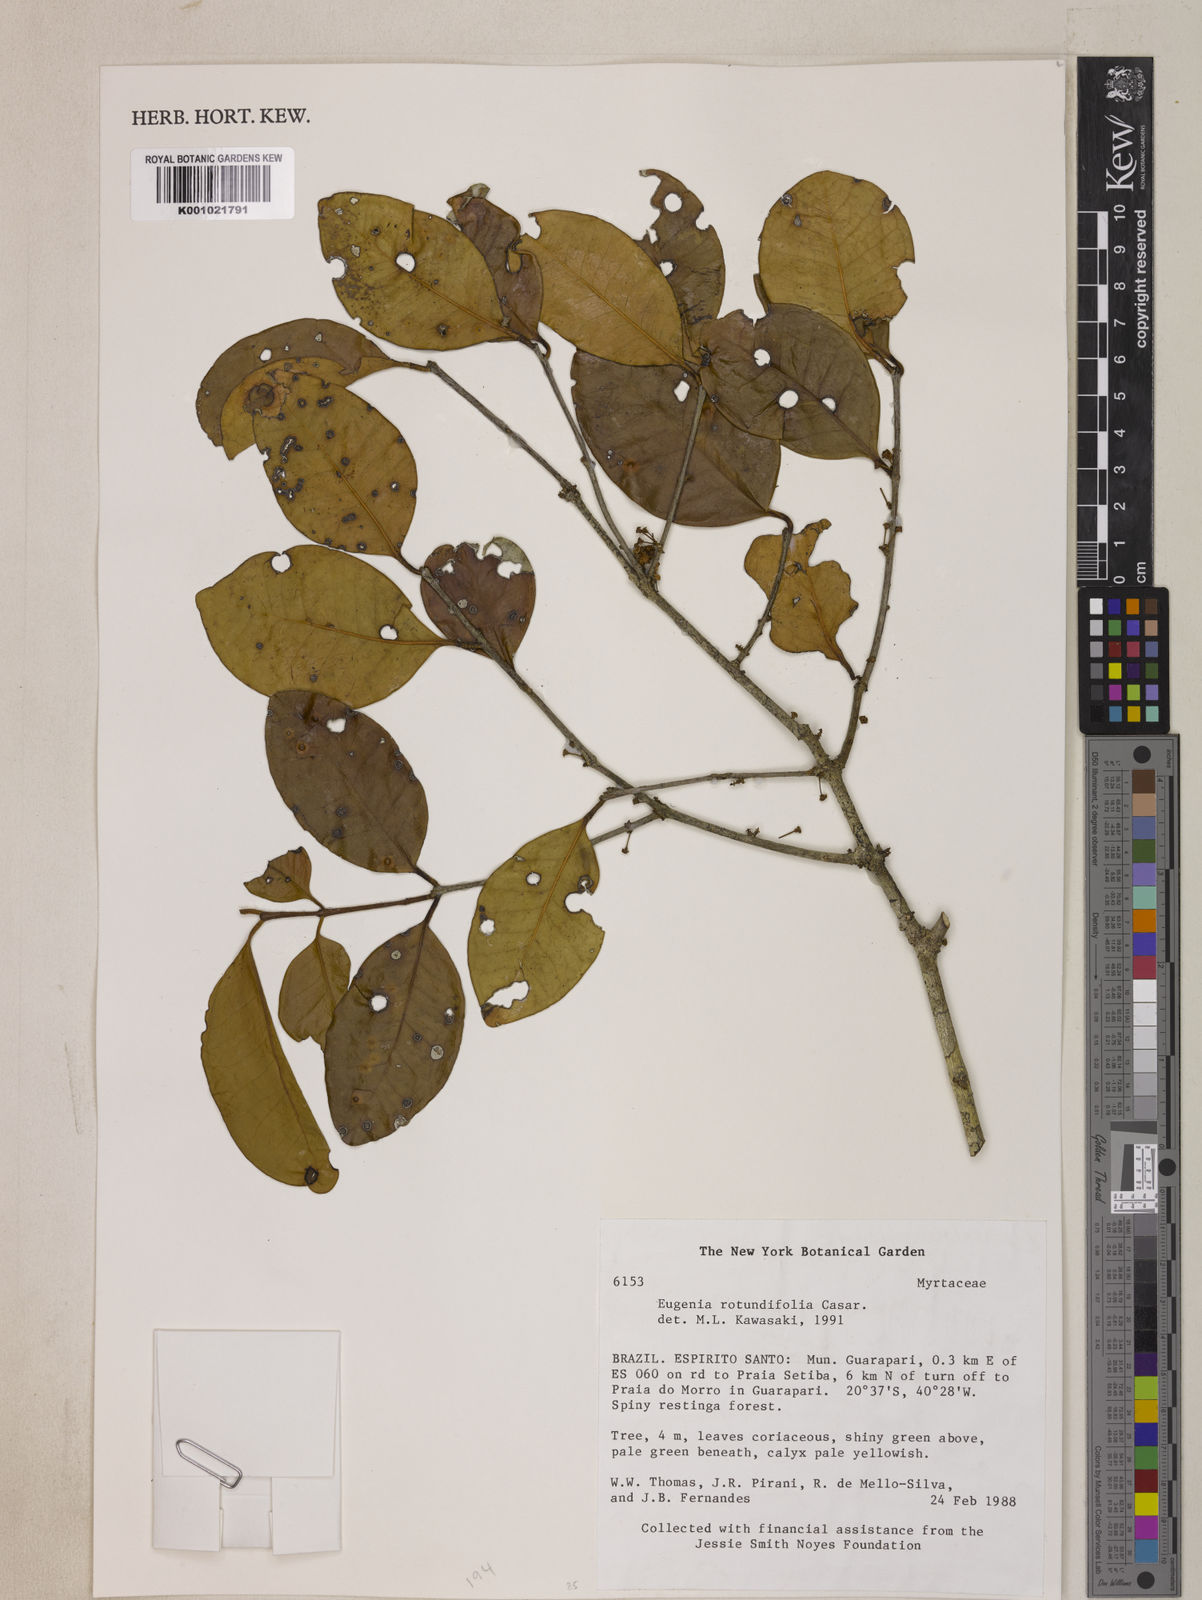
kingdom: Plantae
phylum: Tracheophyta
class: Magnoliopsida
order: Myrtales
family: Myrtaceae
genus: Eugenia
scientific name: Eugenia casarettoana
